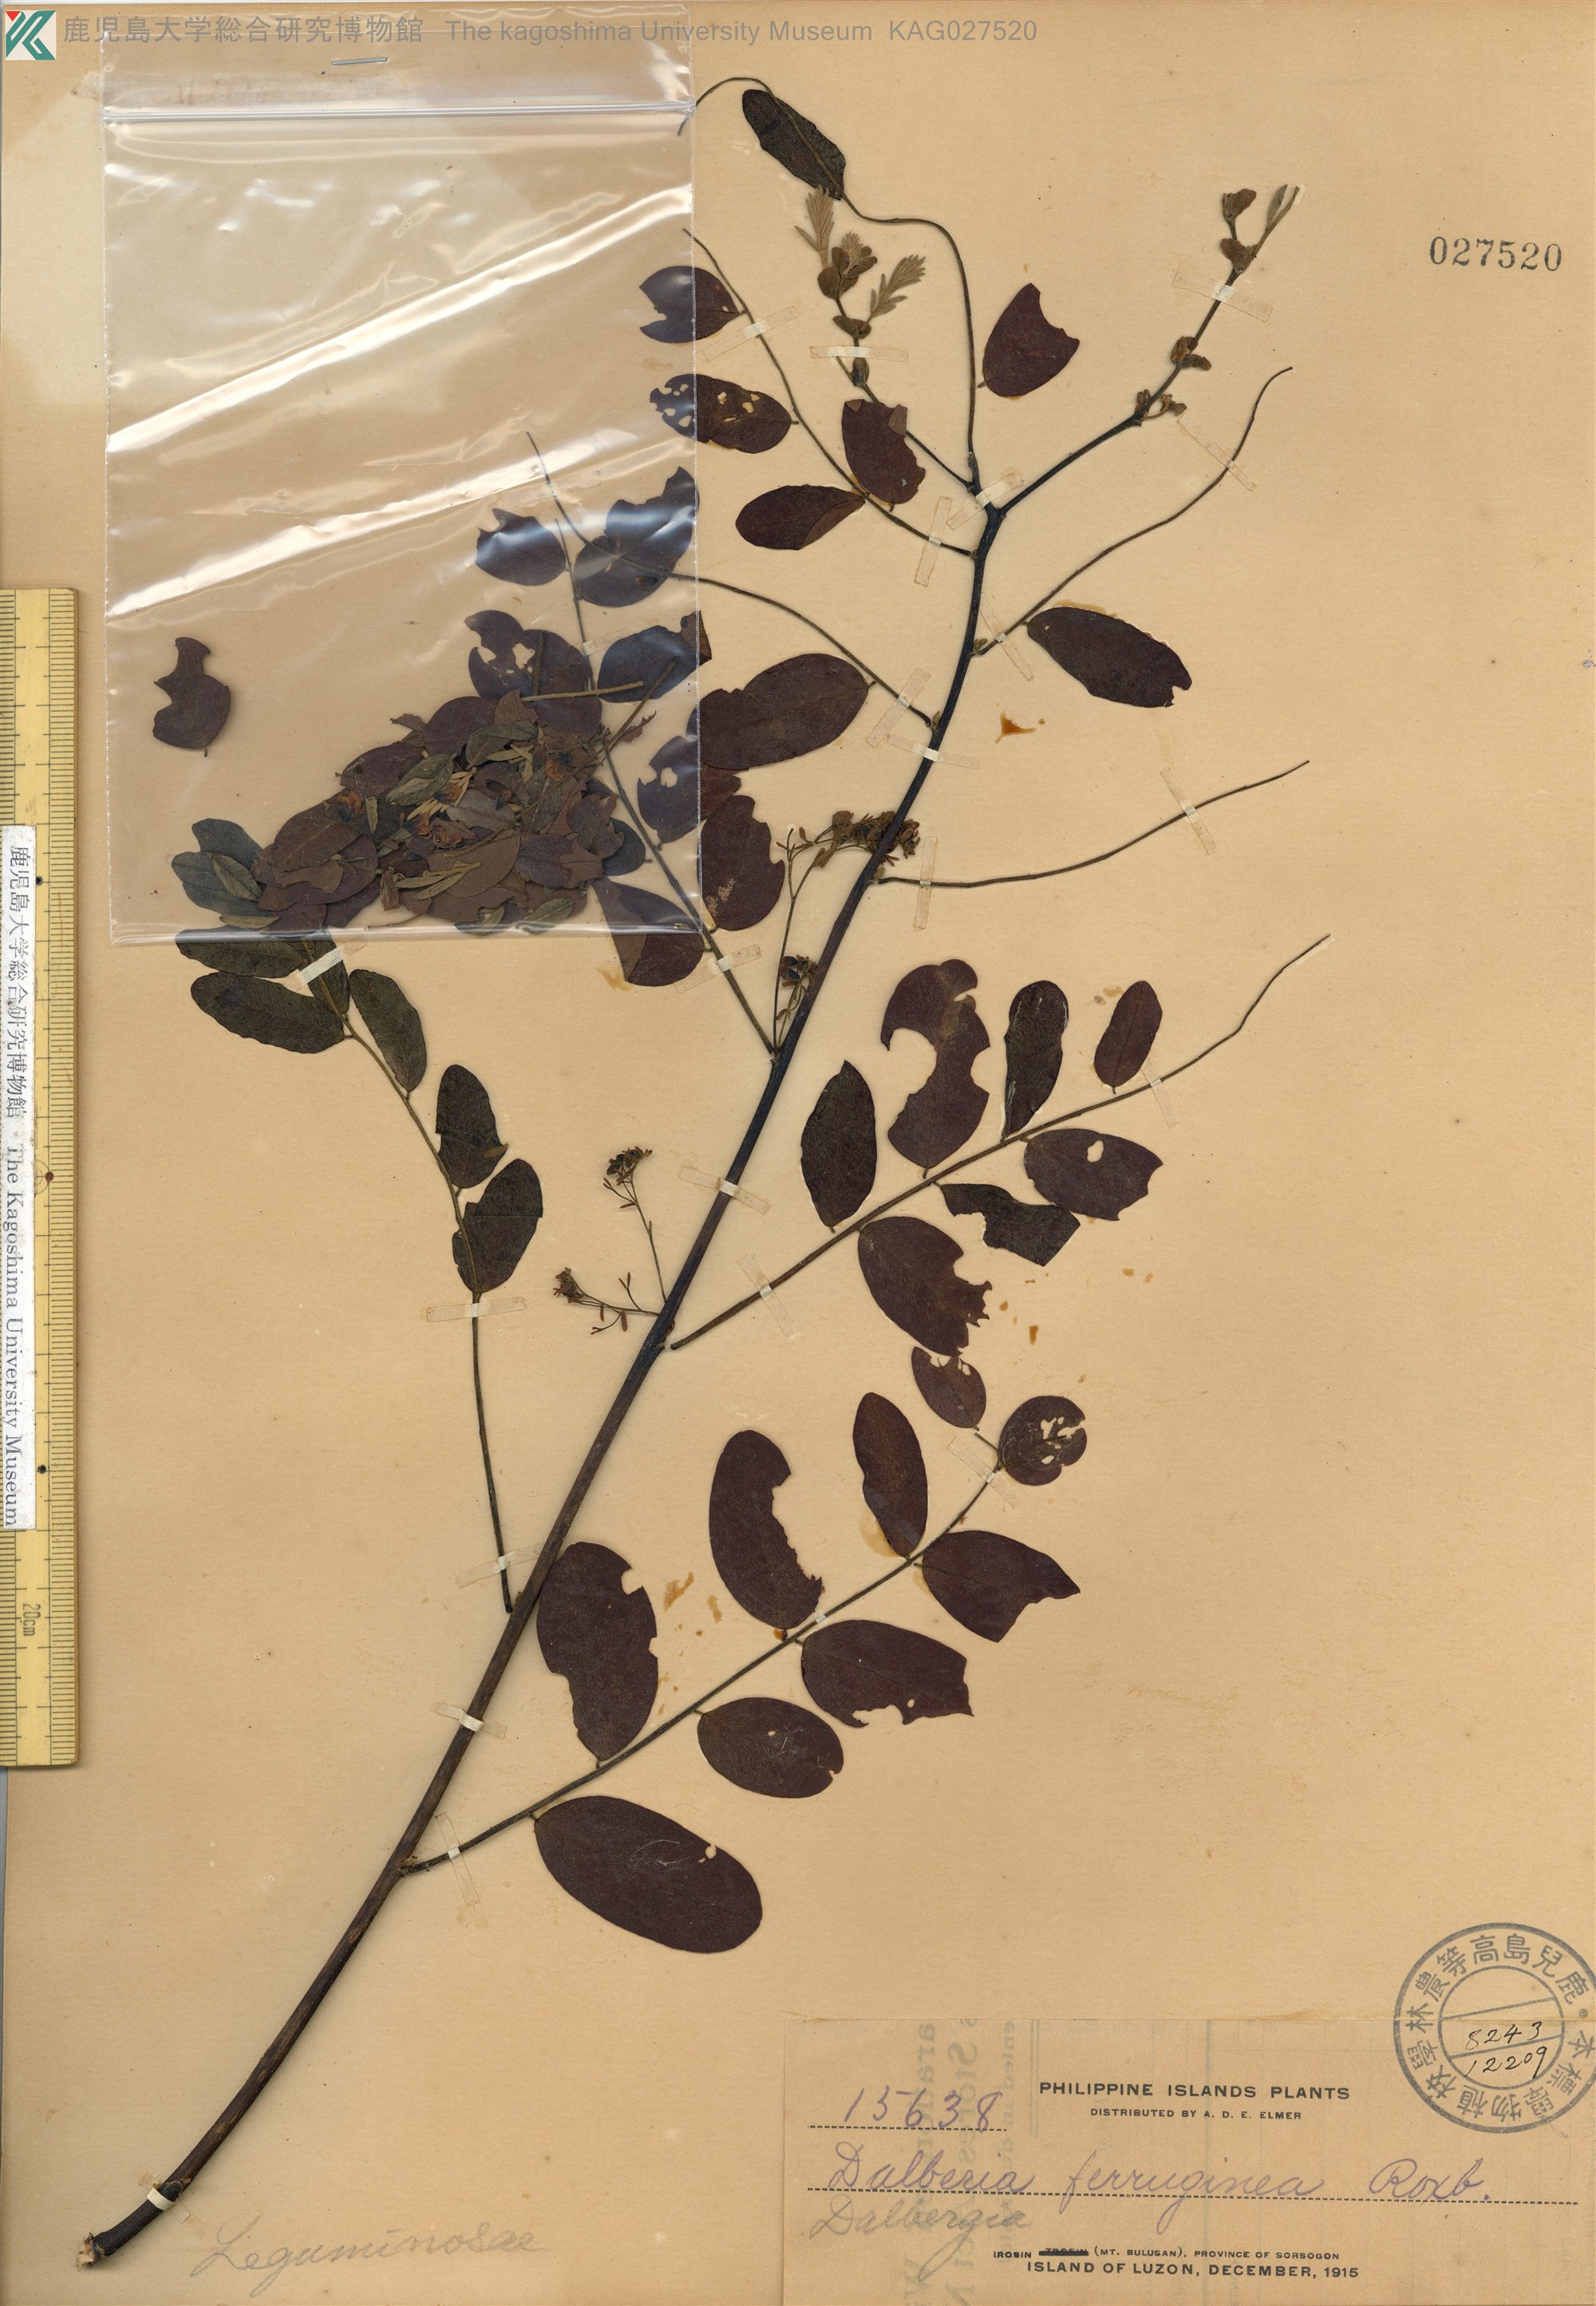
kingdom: Plantae
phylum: Tracheophyta
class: Magnoliopsida
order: Fabales
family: Fabaceae
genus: Dalbergia
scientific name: Dalbergia ferruginea
